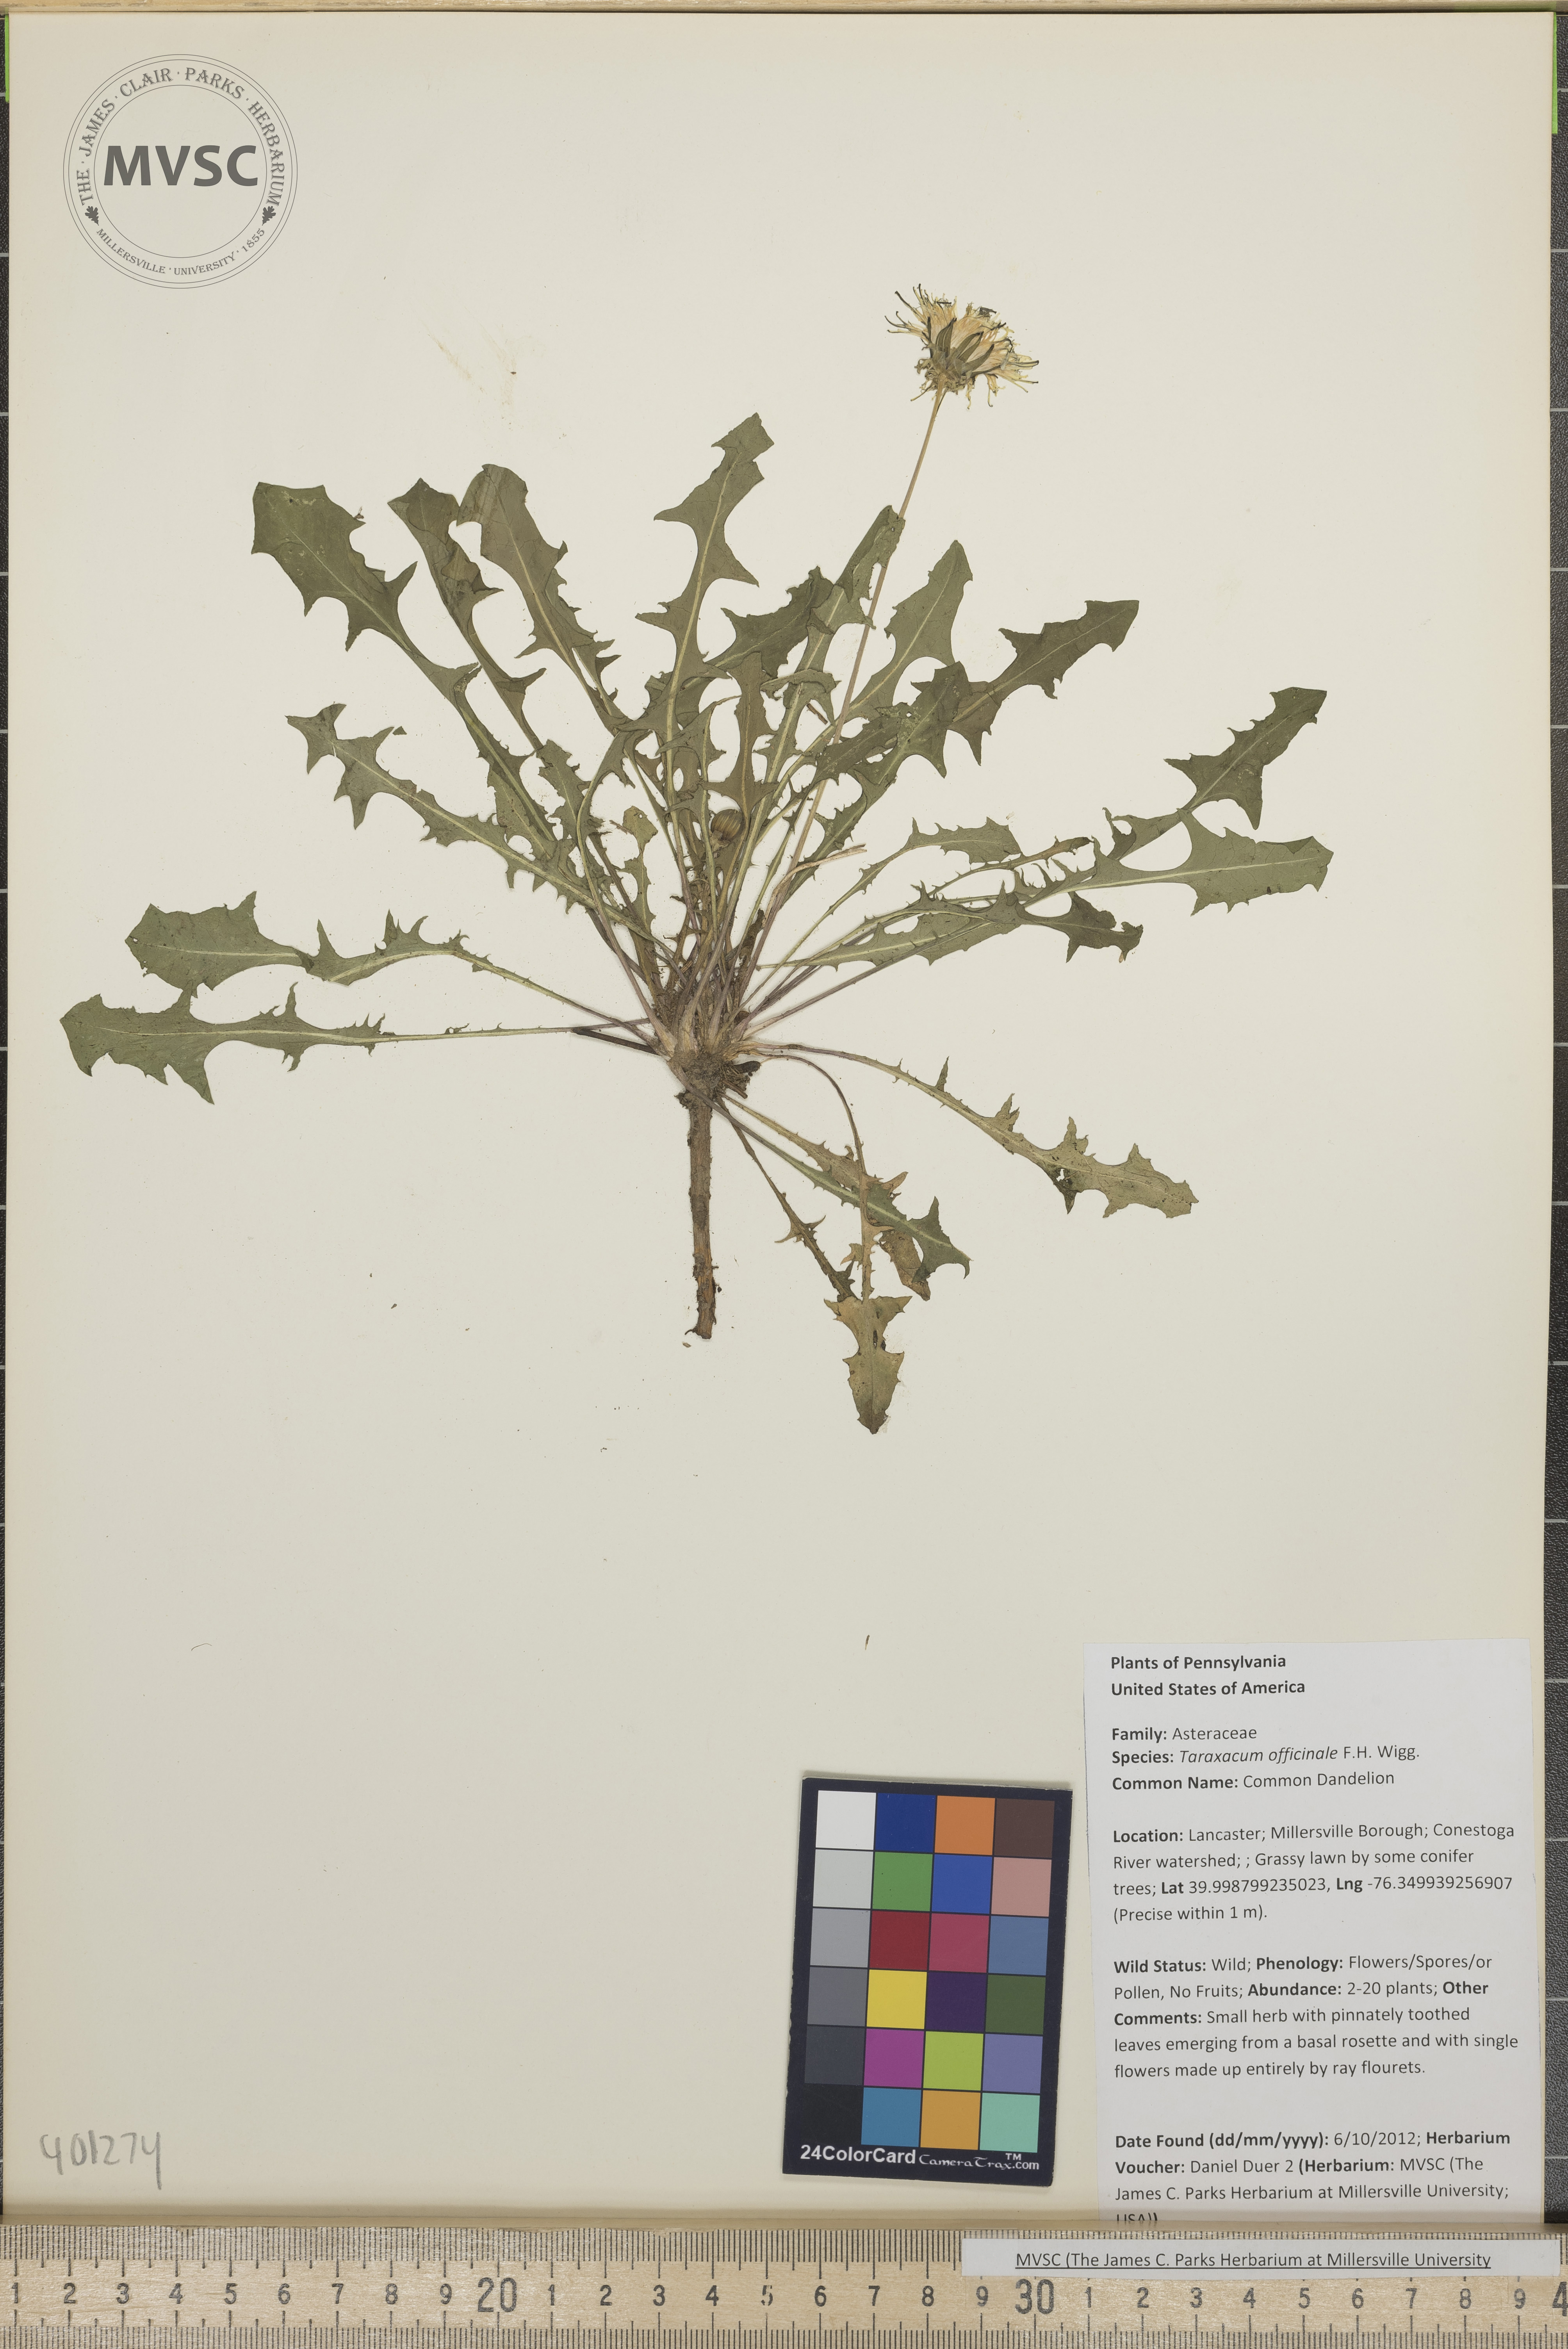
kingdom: Plantae
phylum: Tracheophyta
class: Magnoliopsida
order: Asterales
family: Asteraceae
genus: Taraxacum
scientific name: Taraxacum officinale
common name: Common Dandelion
